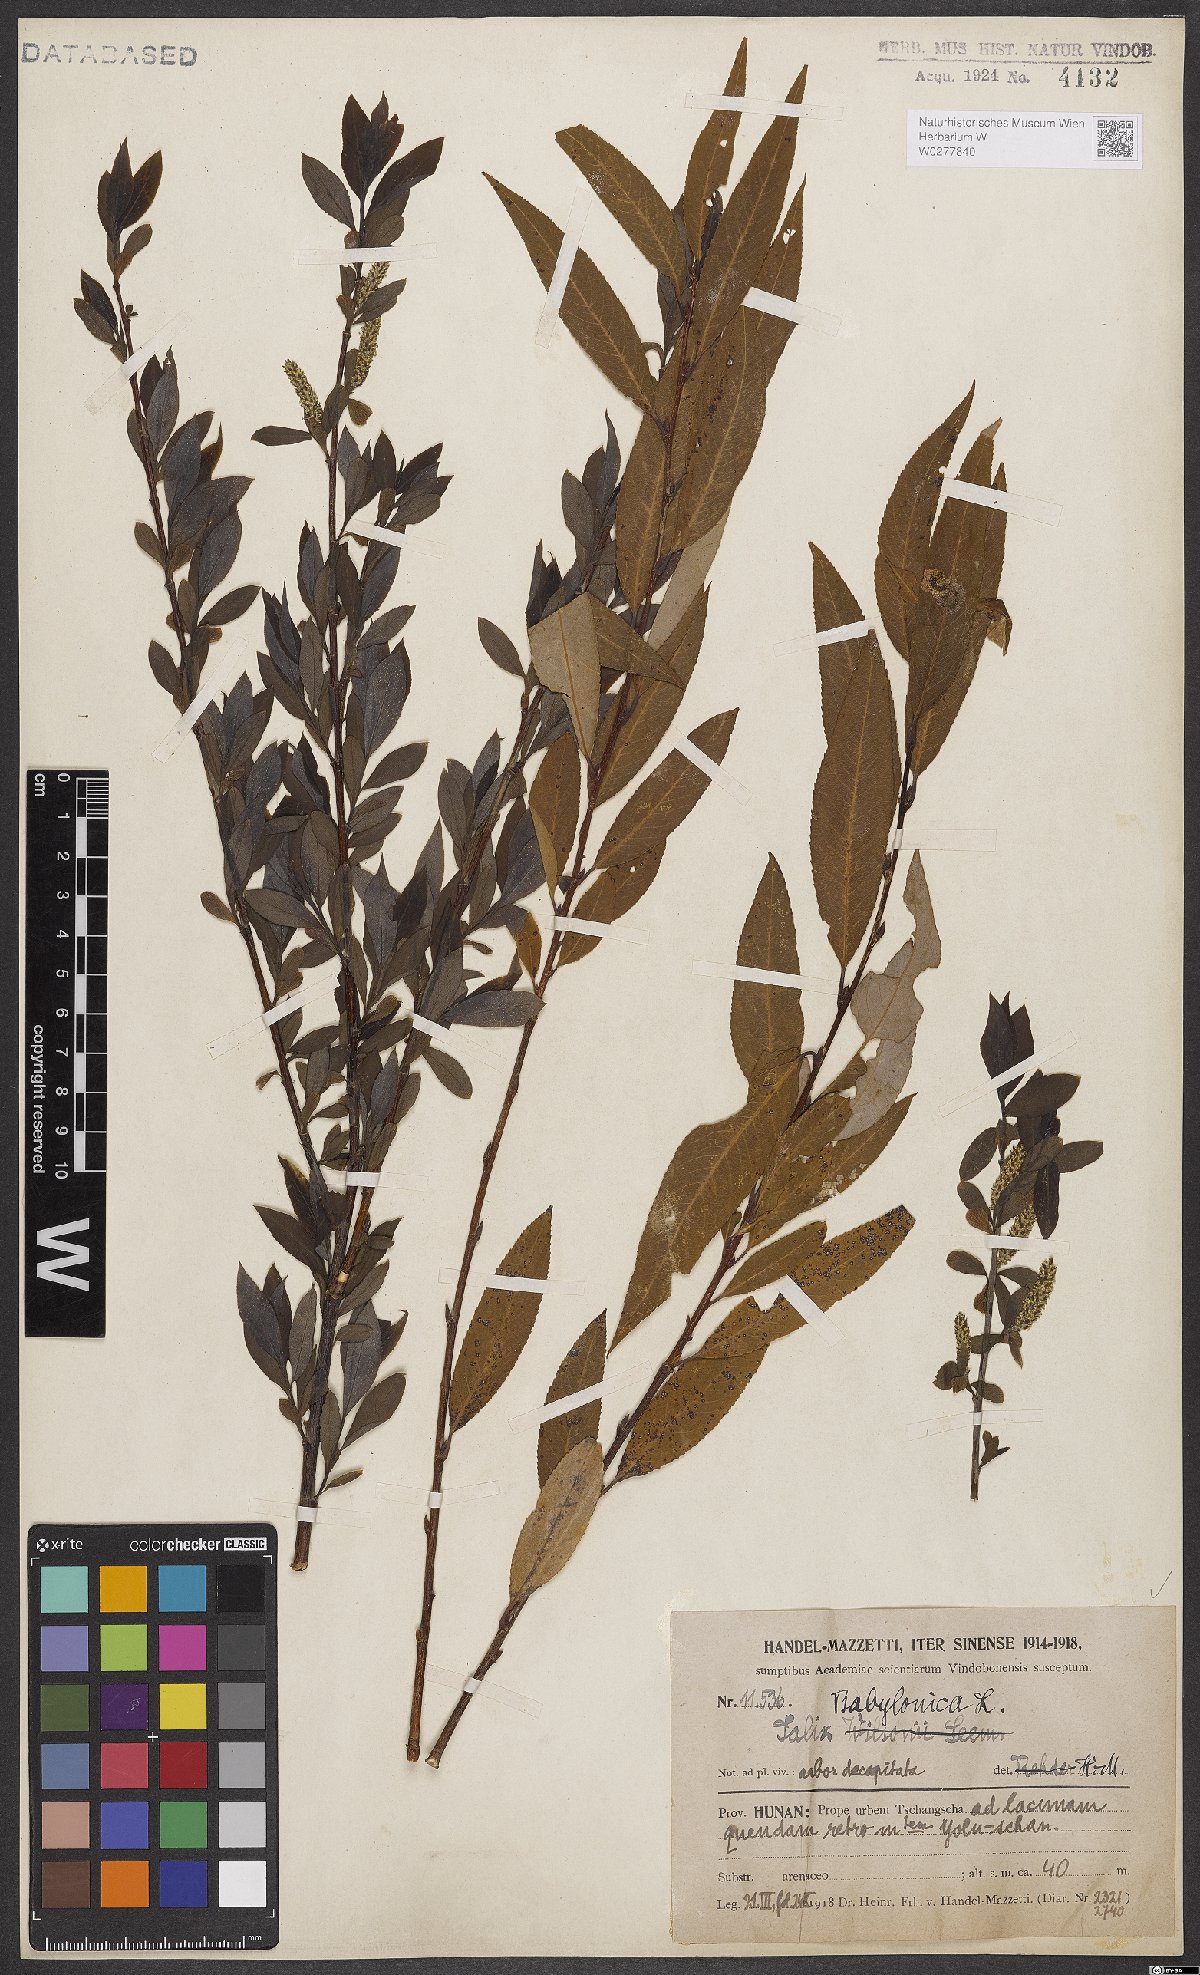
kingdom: Plantae
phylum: Tracheophyta
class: Magnoliopsida
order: Malpighiales
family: Salicaceae
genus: Salix
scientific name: Salix babylonica
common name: Weeping willow
